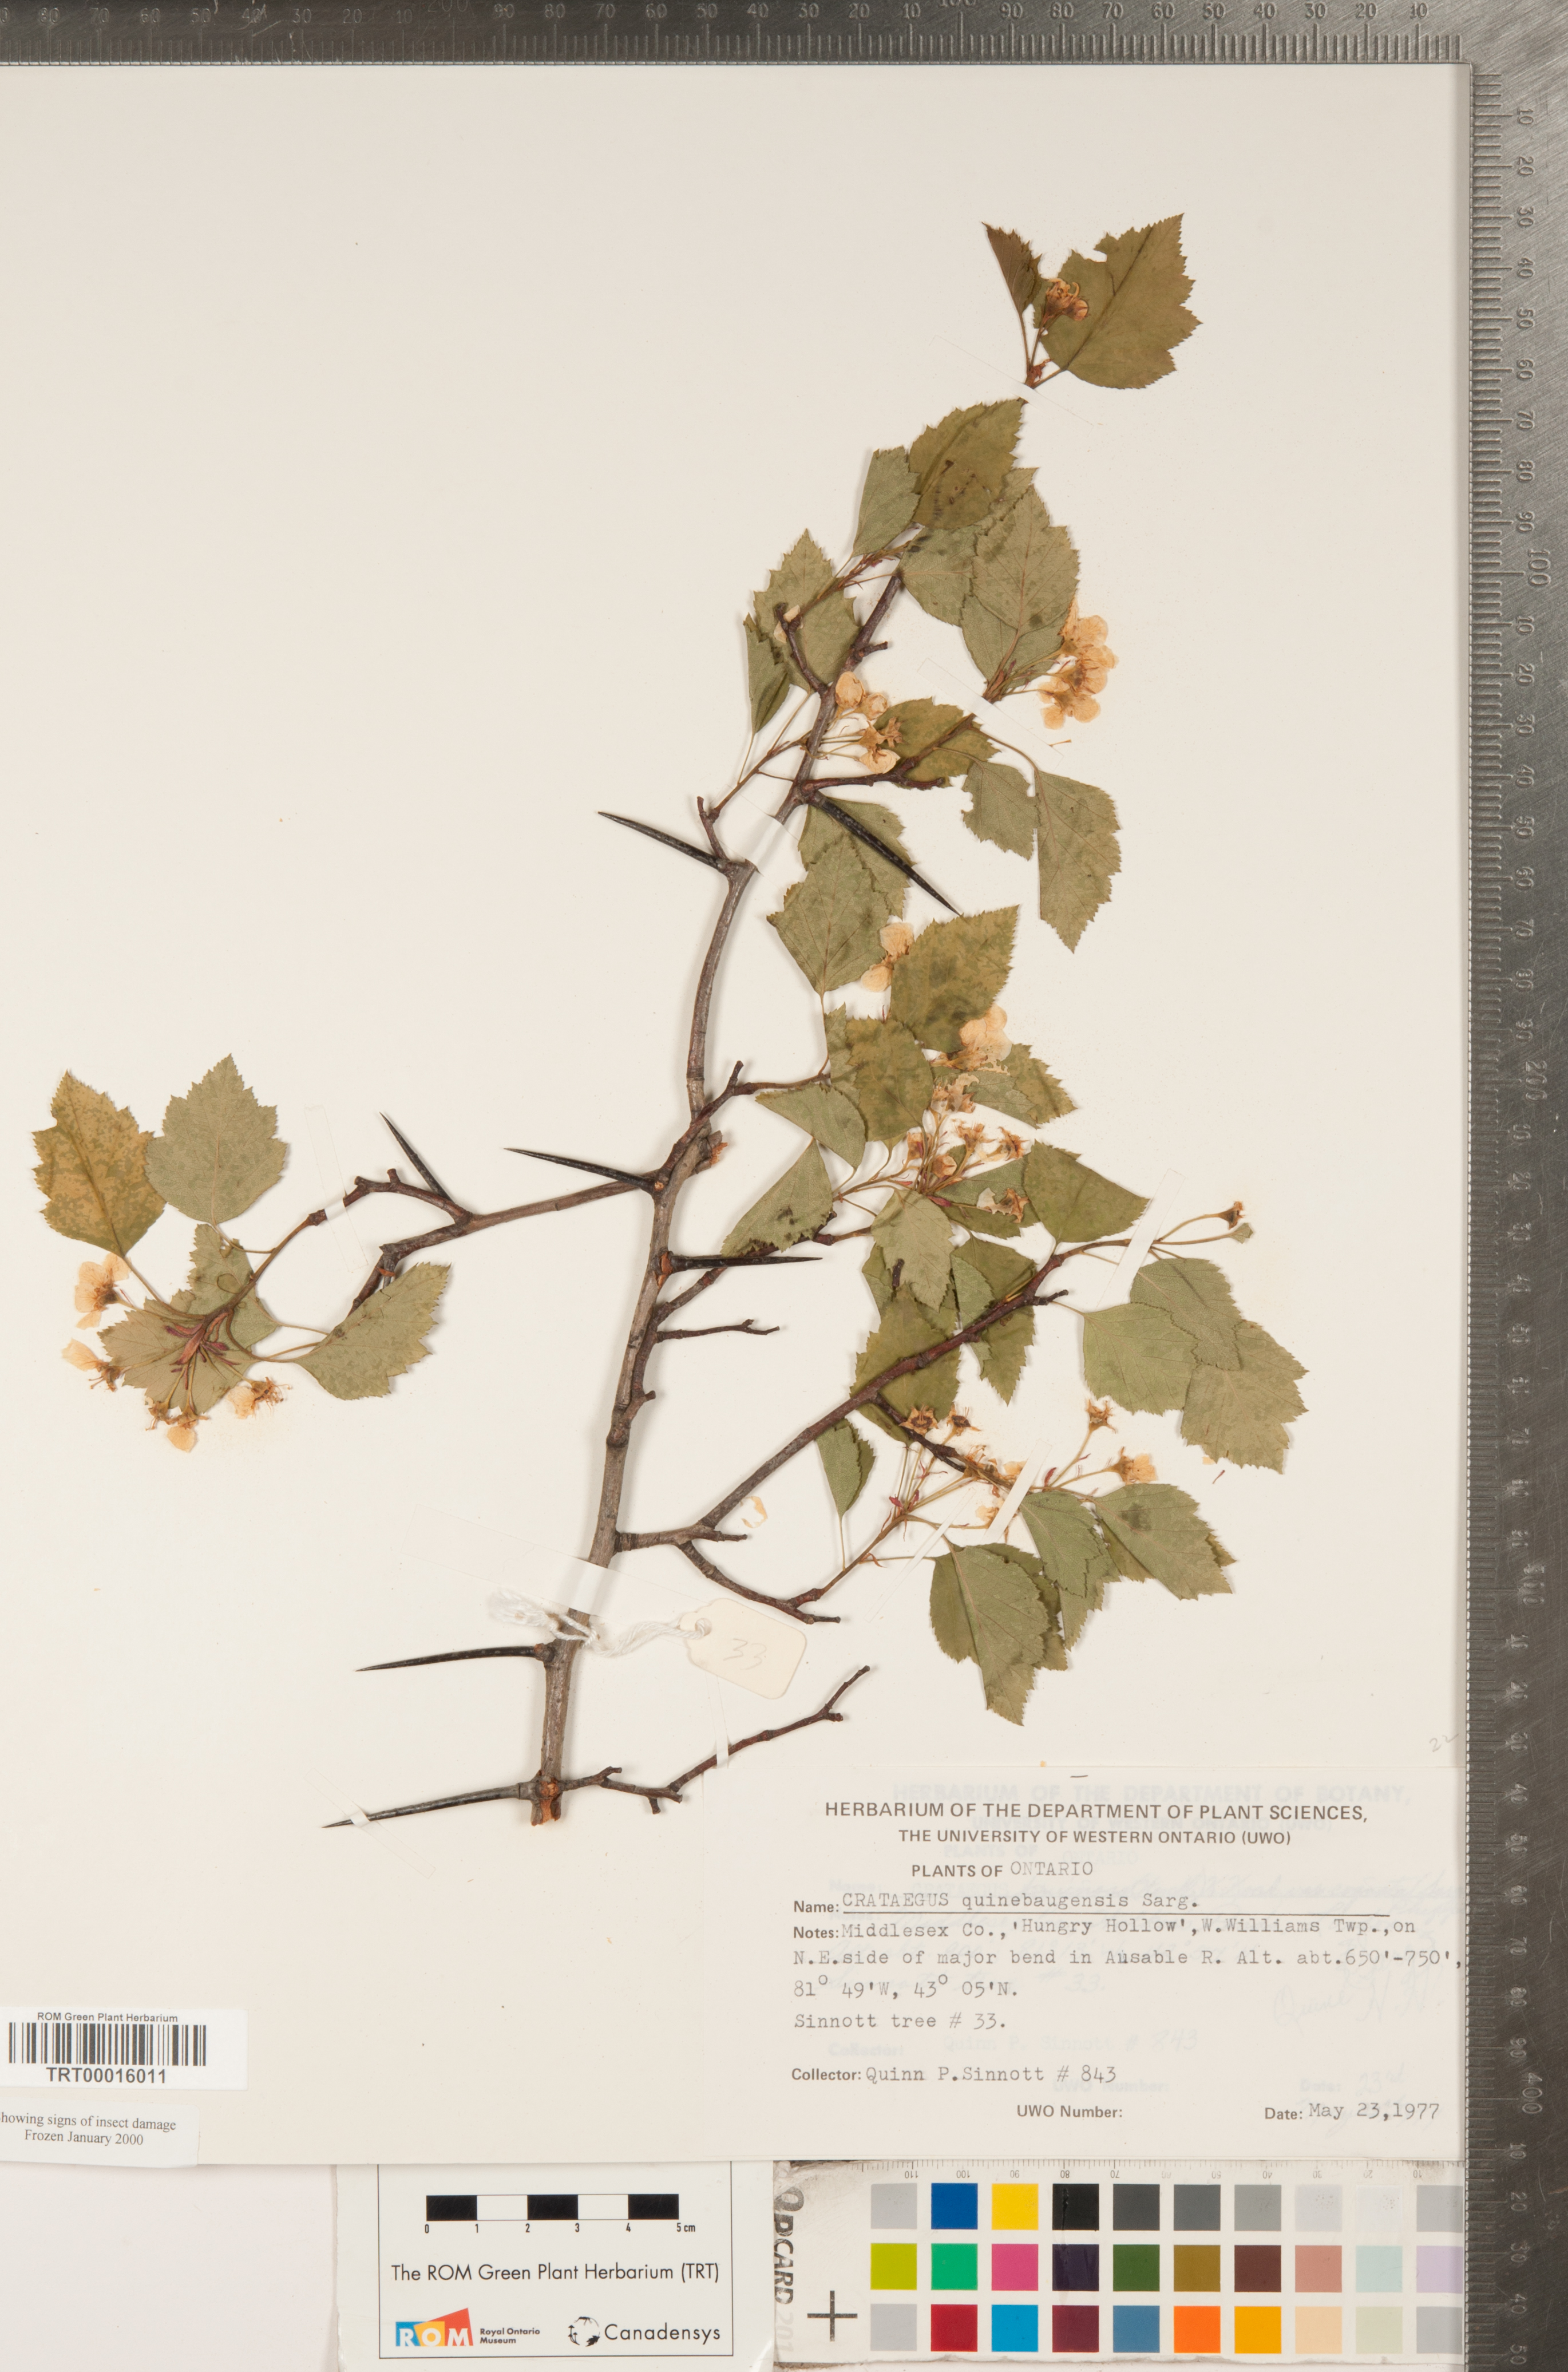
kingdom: Plantae
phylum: Tracheophyta
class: Magnoliopsida
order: Rosales
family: Rosaceae
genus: Crataegus
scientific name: Crataegus quinebaugensis
